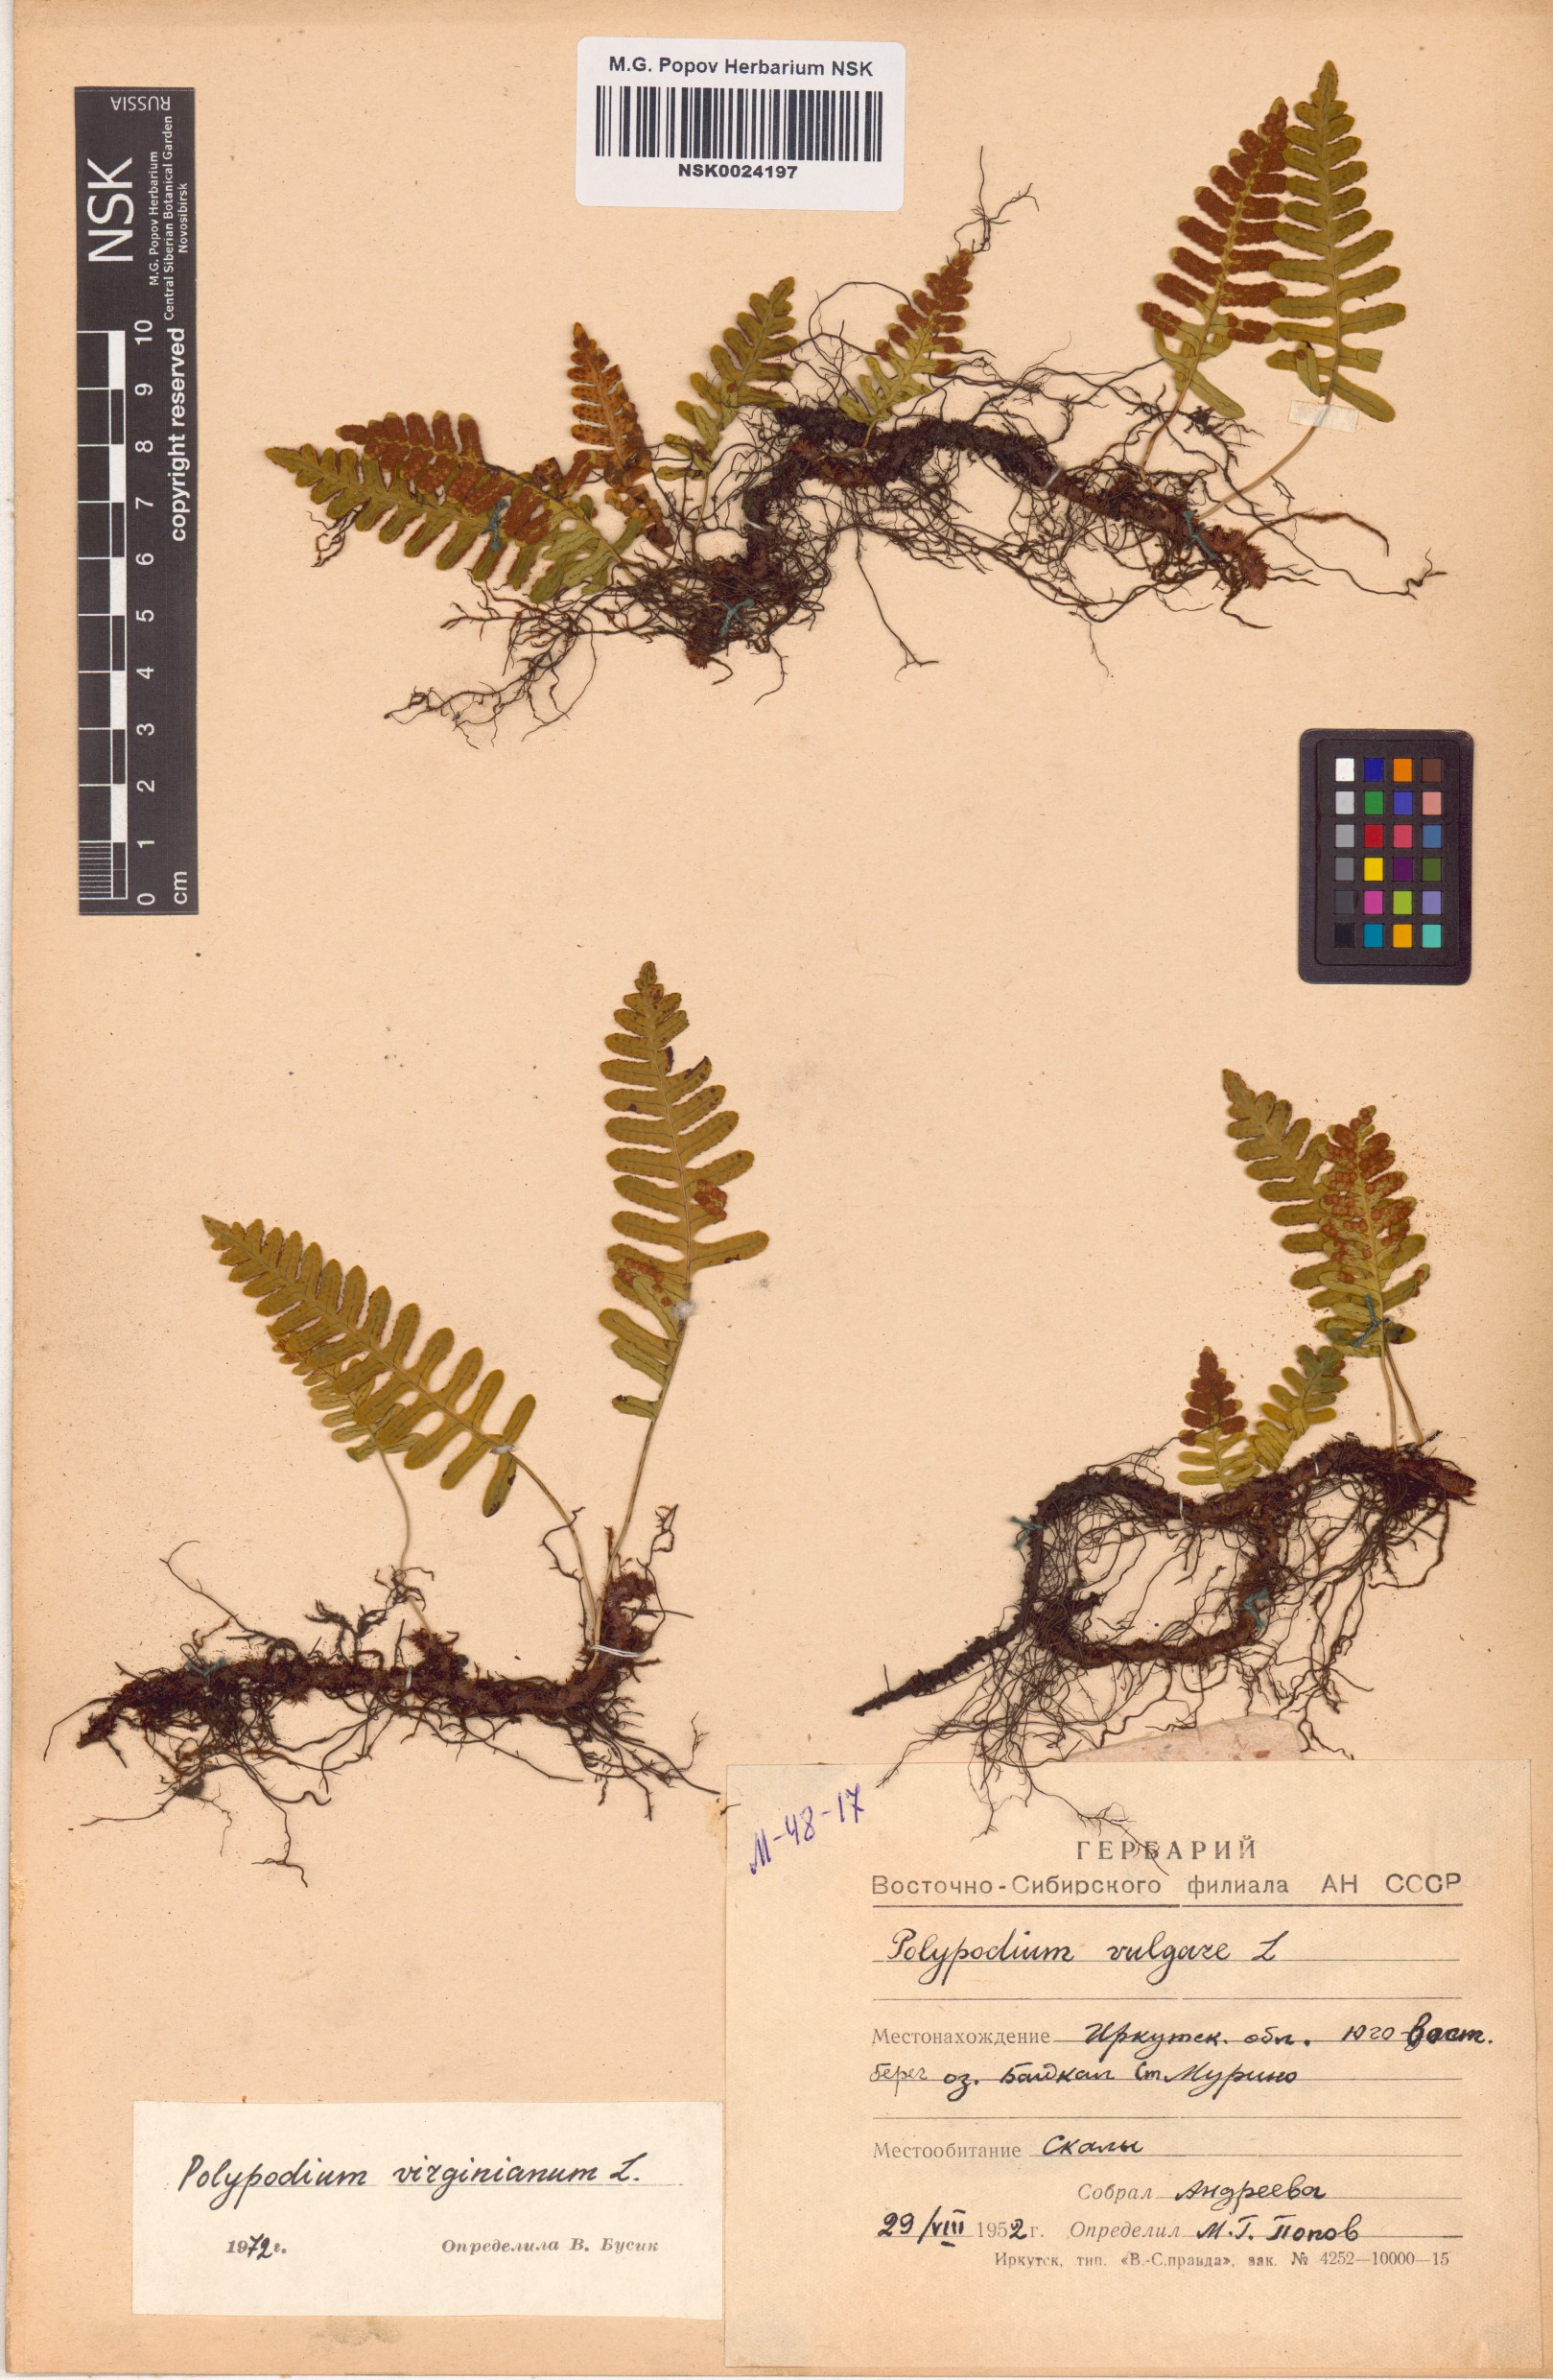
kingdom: Plantae
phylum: Tracheophyta
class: Polypodiopsida
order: Polypodiales
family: Polypodiaceae
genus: Polypodium
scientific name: Polypodium virginianum
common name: American wall fern
